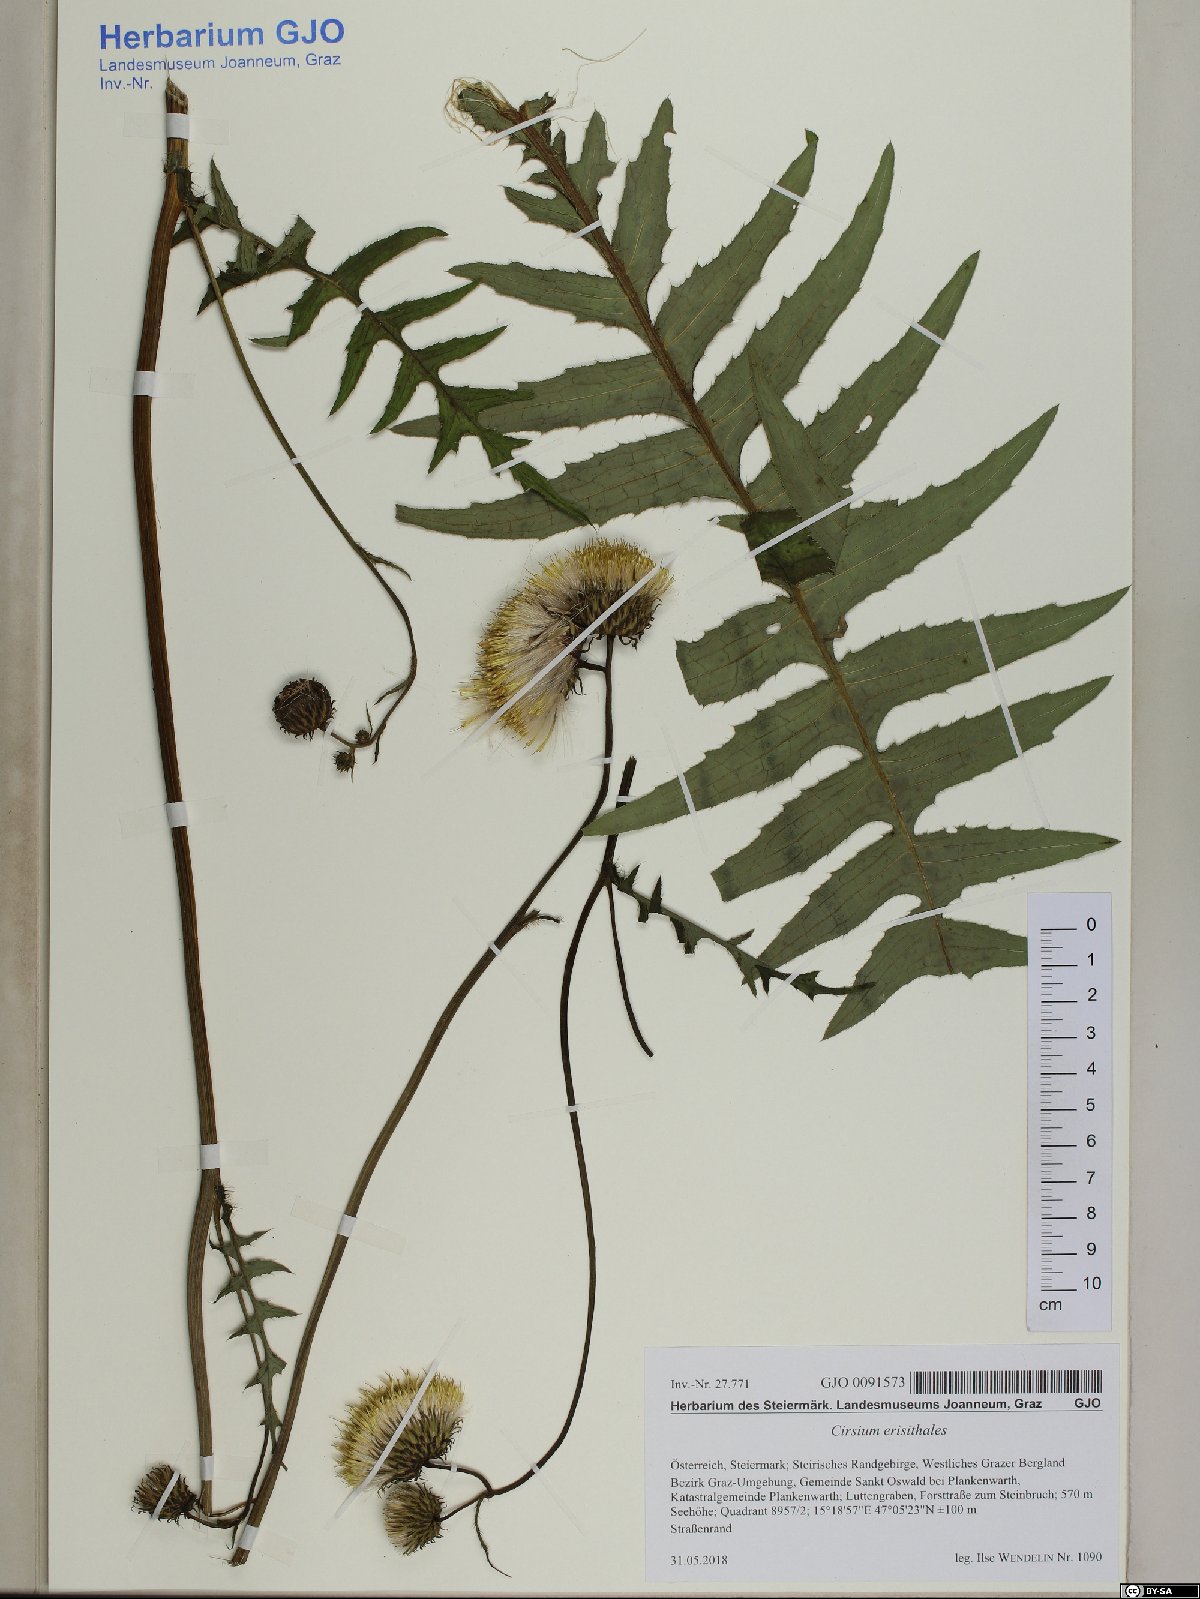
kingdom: Plantae
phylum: Tracheophyta
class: Magnoliopsida
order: Asterales
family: Asteraceae
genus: Cirsium
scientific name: Cirsium erisithales
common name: Yellow thistle
